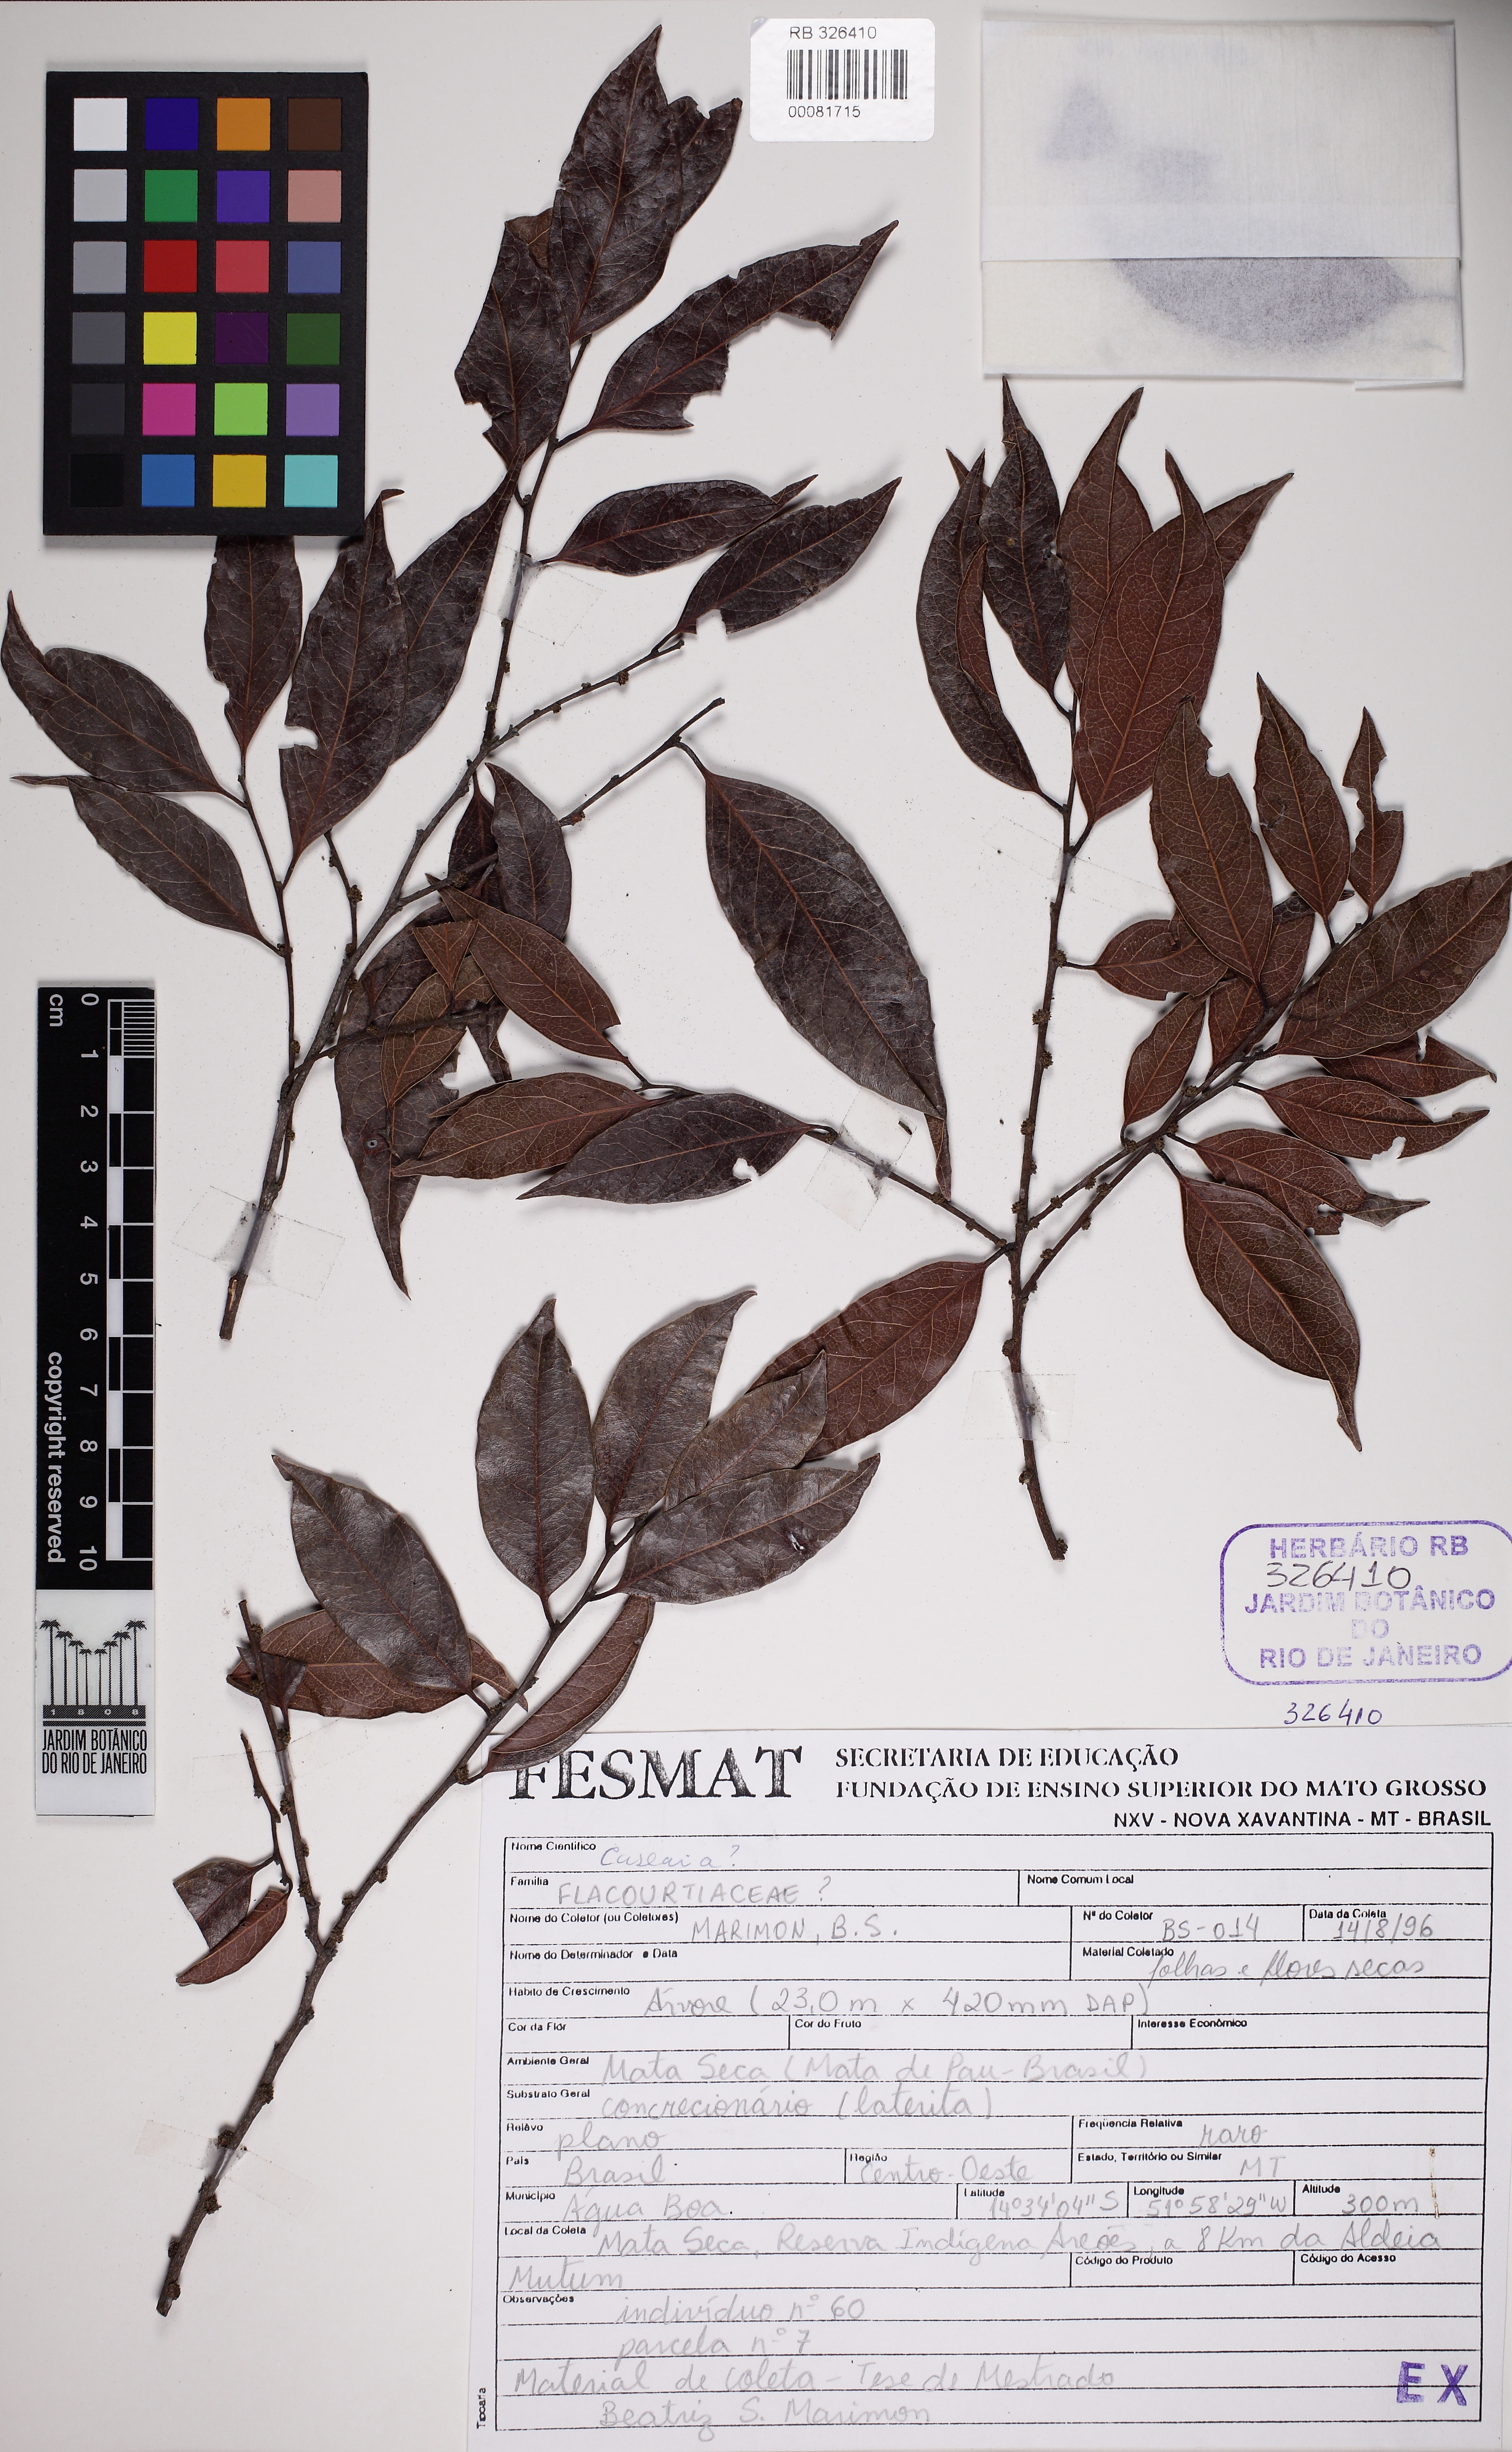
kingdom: Plantae
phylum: Tracheophyta
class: Magnoliopsida
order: Malpighiales
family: Salicaceae
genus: Casearia
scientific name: Casearia
